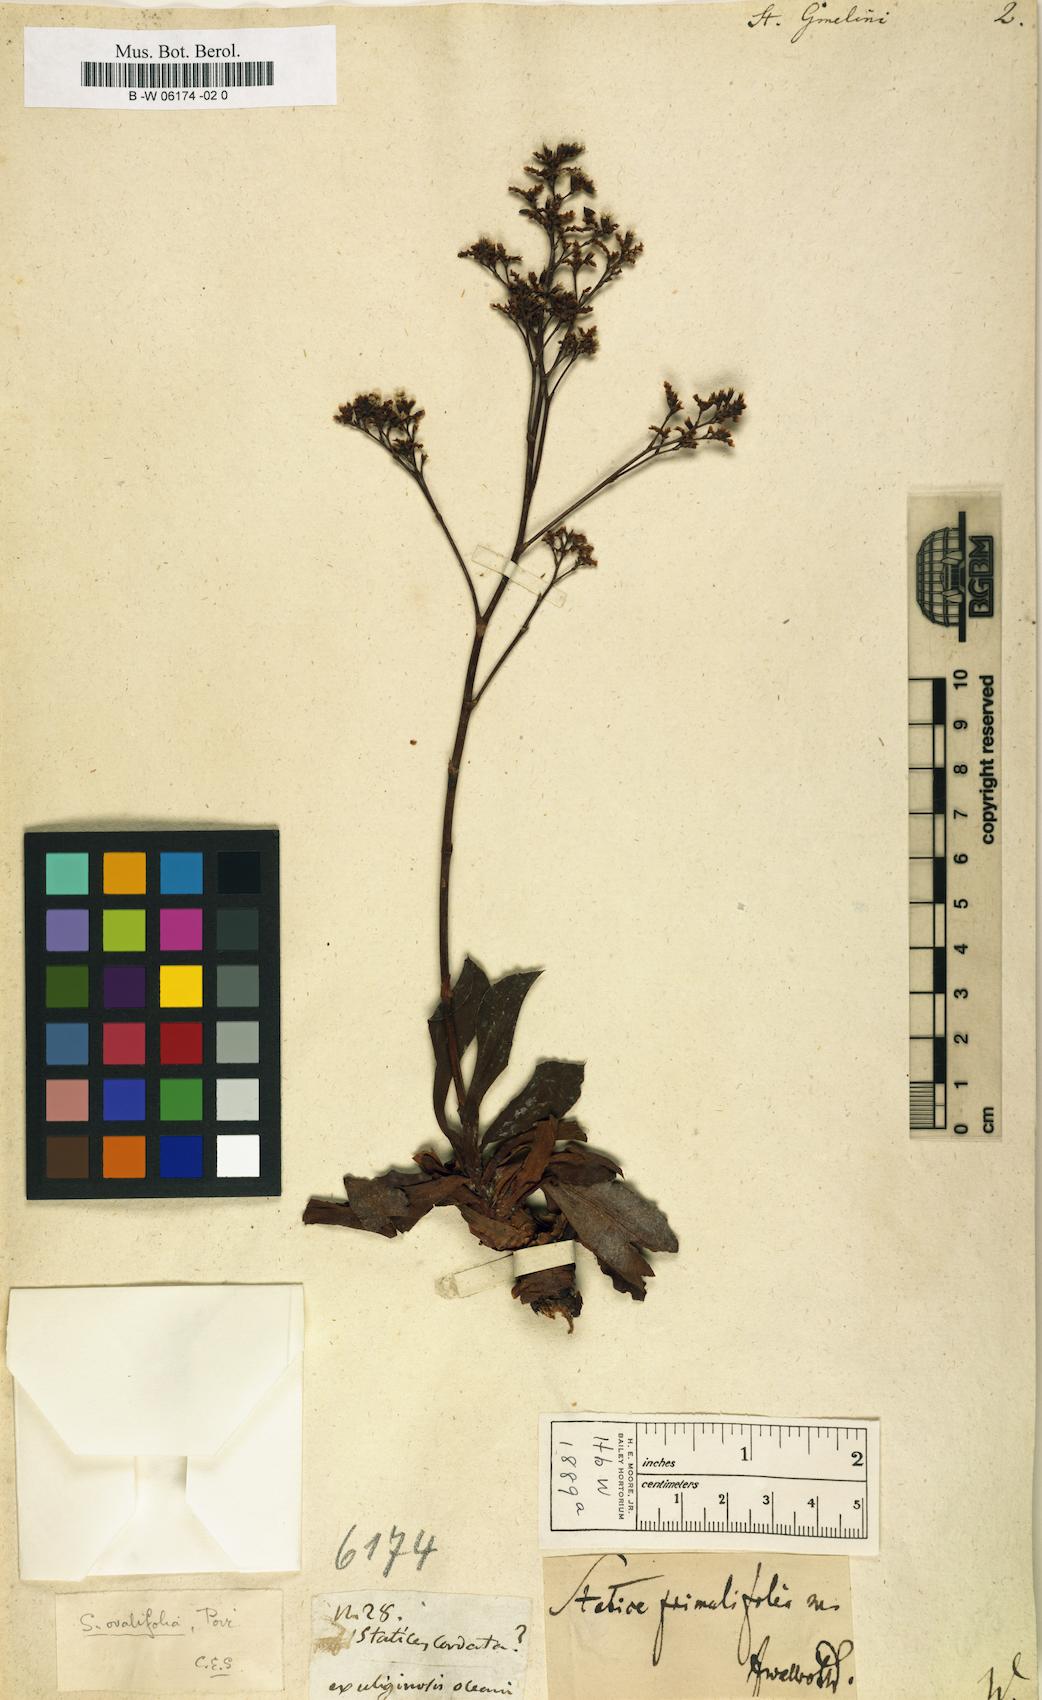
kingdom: Plantae
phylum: Tracheophyta
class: Magnoliopsida
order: Caryophyllales
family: Plumbaginaceae
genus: Limonium
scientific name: Limonium gmelini
